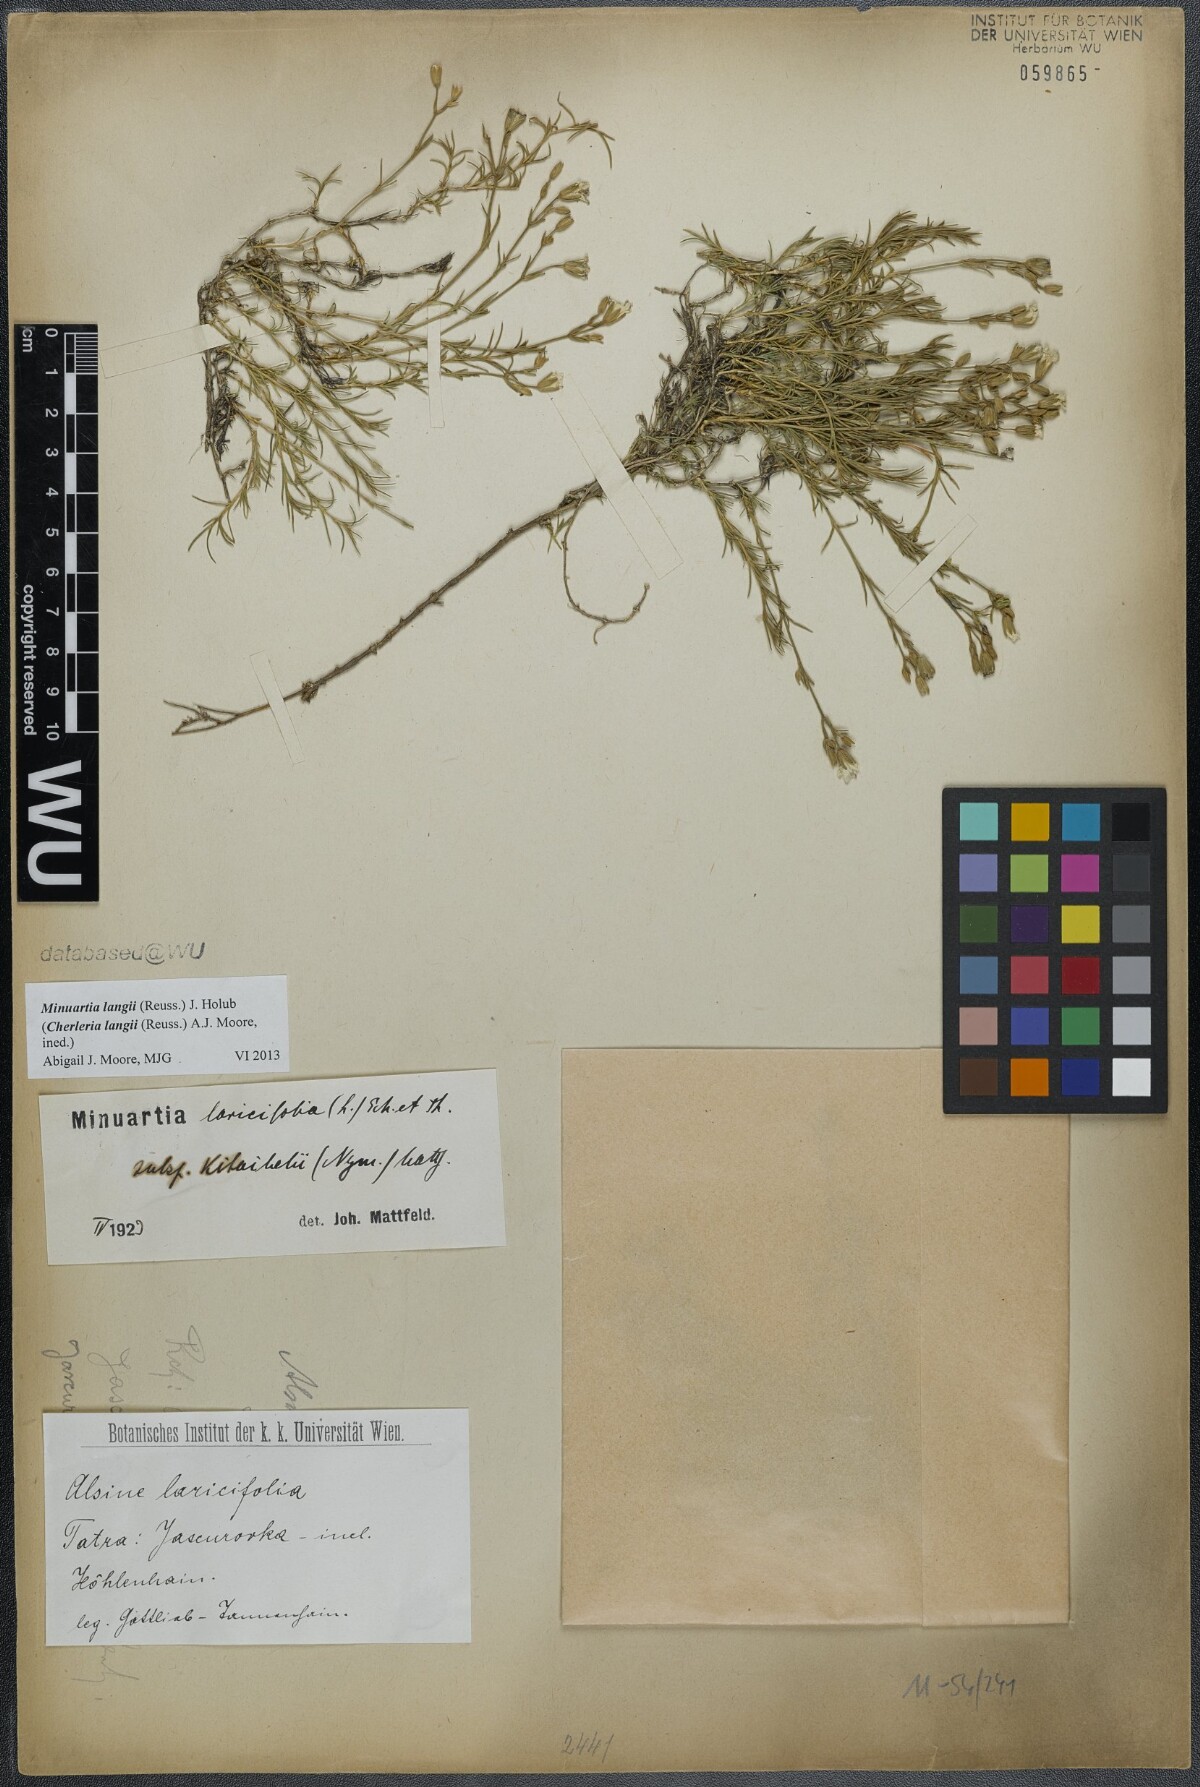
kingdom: Plantae
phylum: Tracheophyta
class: Magnoliopsida
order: Caryophyllales
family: Caryophyllaceae
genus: Cherleria
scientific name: Cherleria langii
